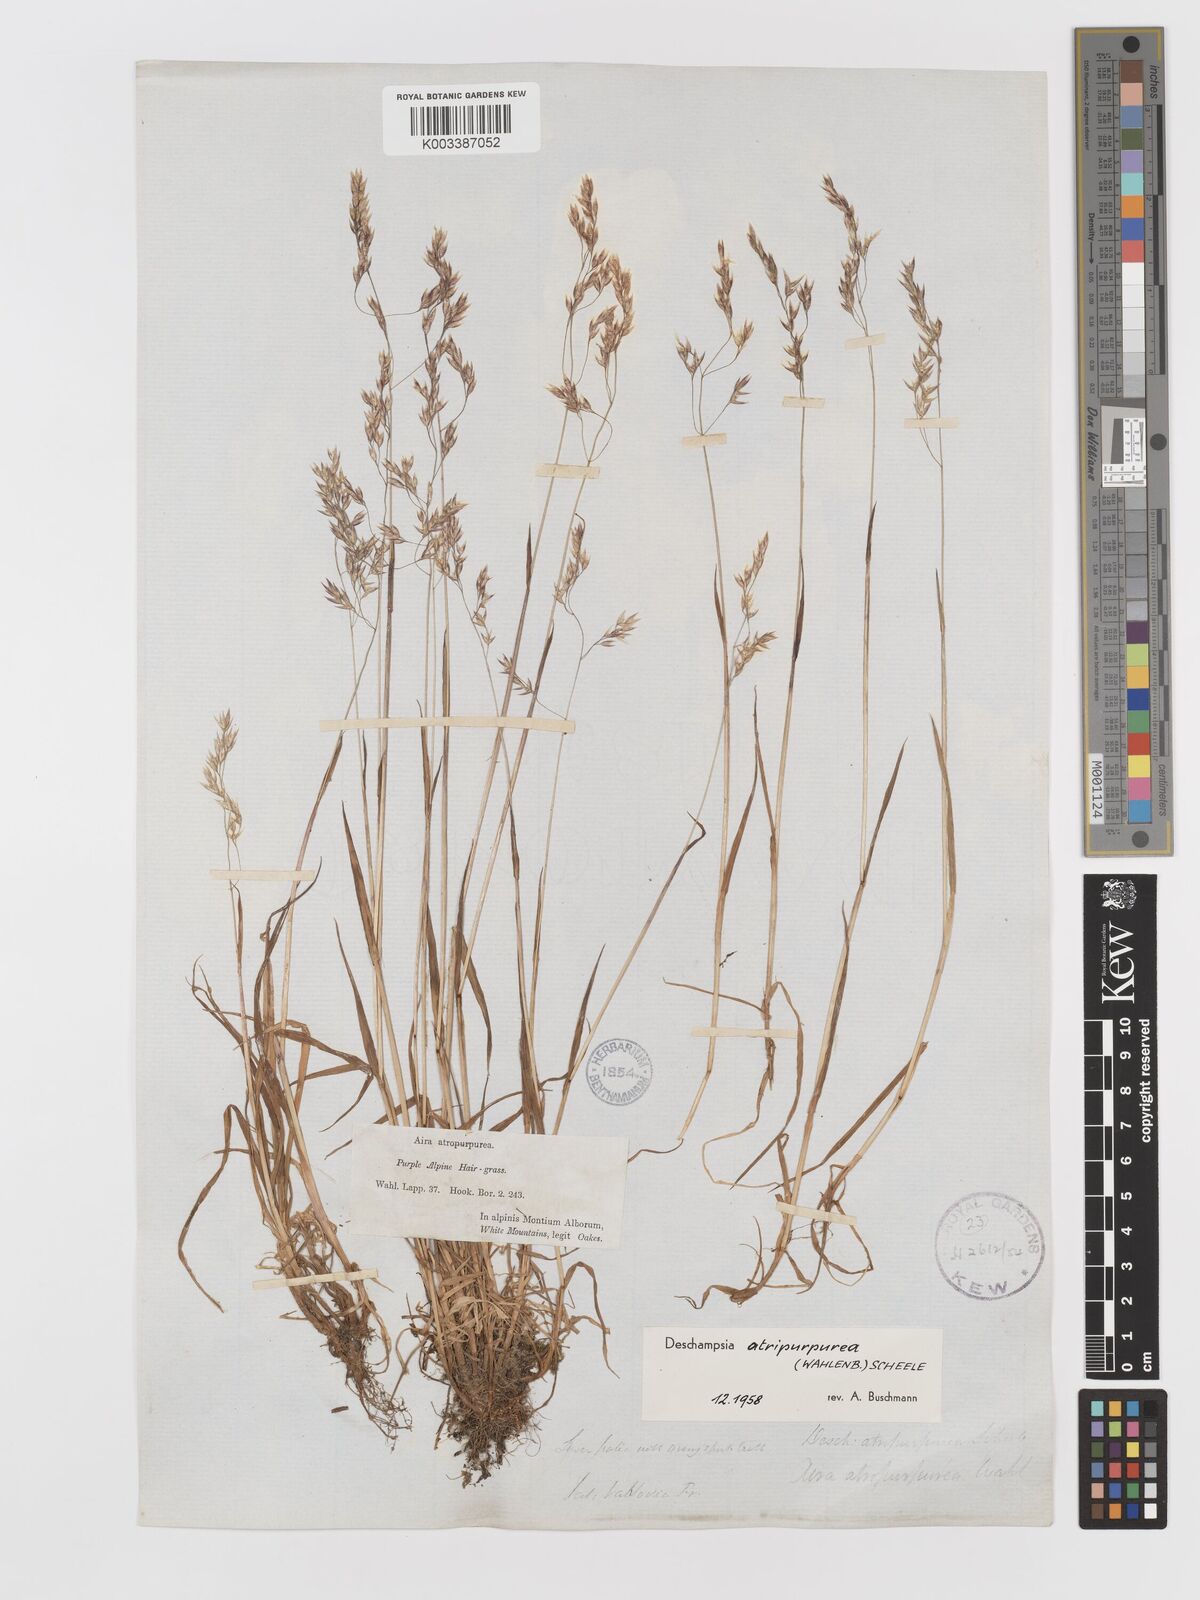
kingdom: Plantae
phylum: Tracheophyta
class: Liliopsida
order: Poales
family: Poaceae
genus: Vahlodea
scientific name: Vahlodea atropurpurea
